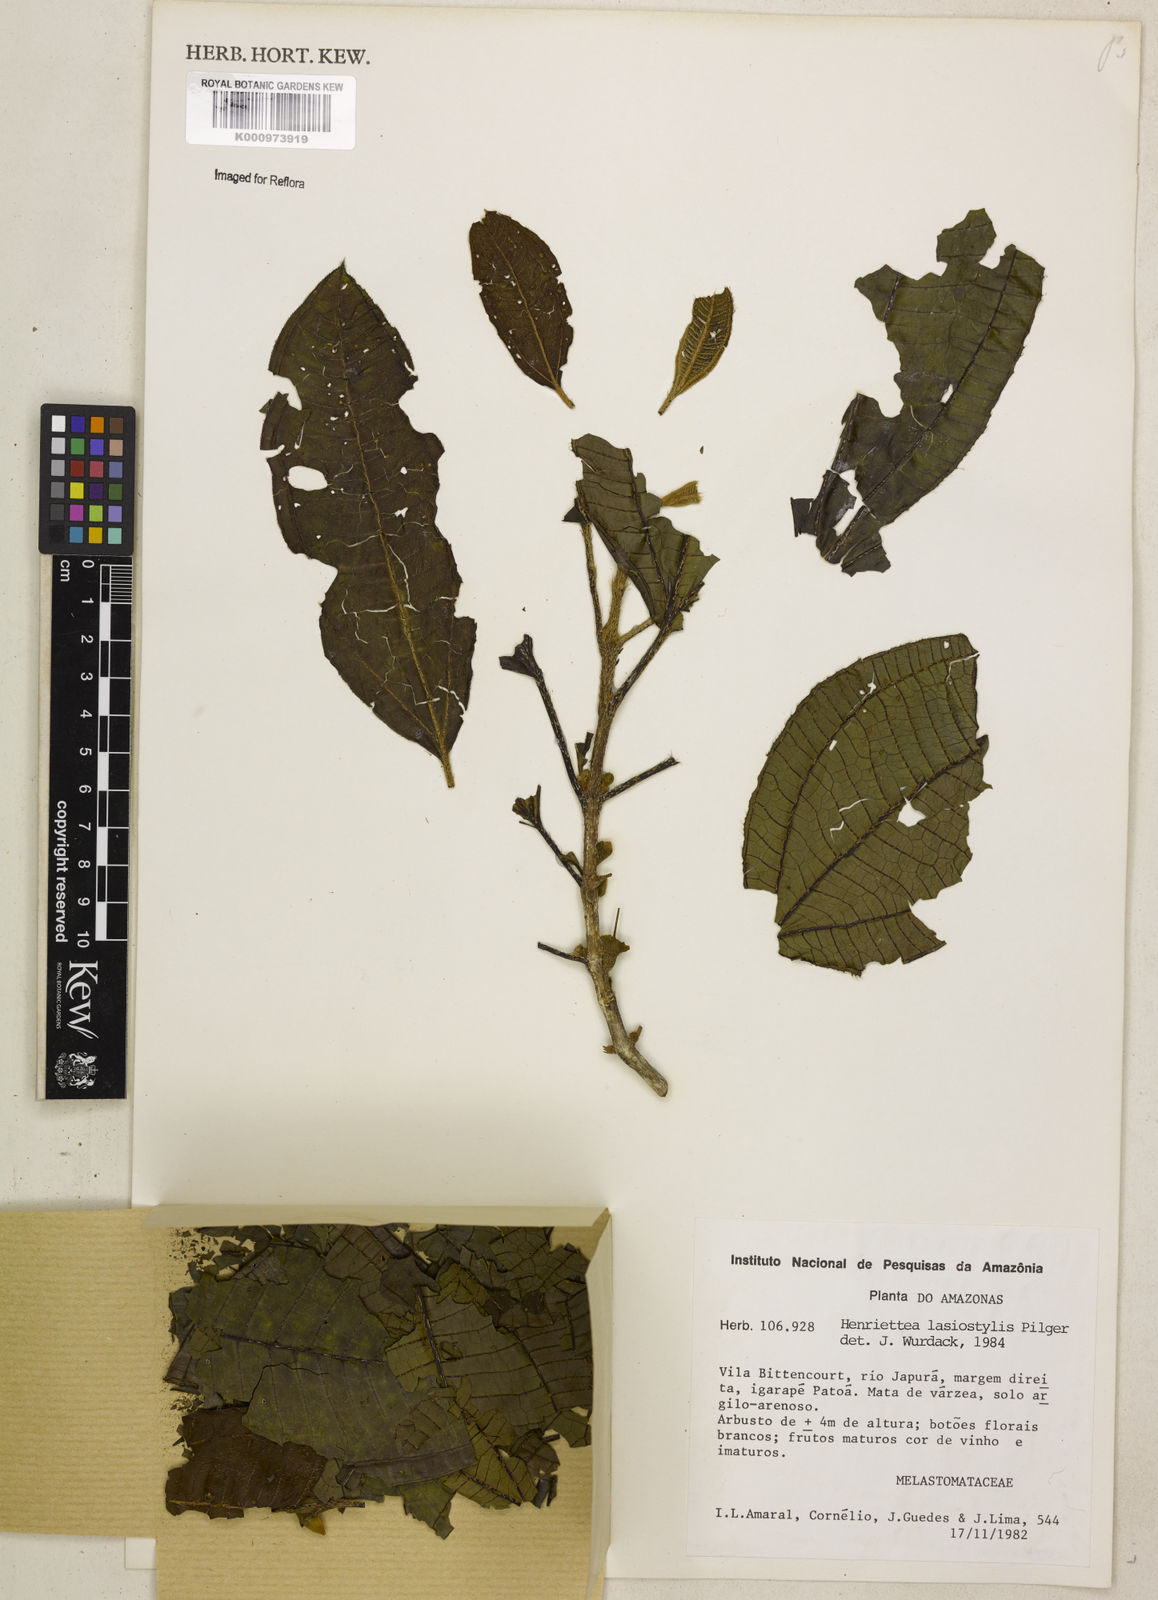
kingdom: Plantae
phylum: Tracheophyta
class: Magnoliopsida
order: Myrtales
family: Melastomataceae
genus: Henriettea
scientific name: Henriettea lasiostylis
